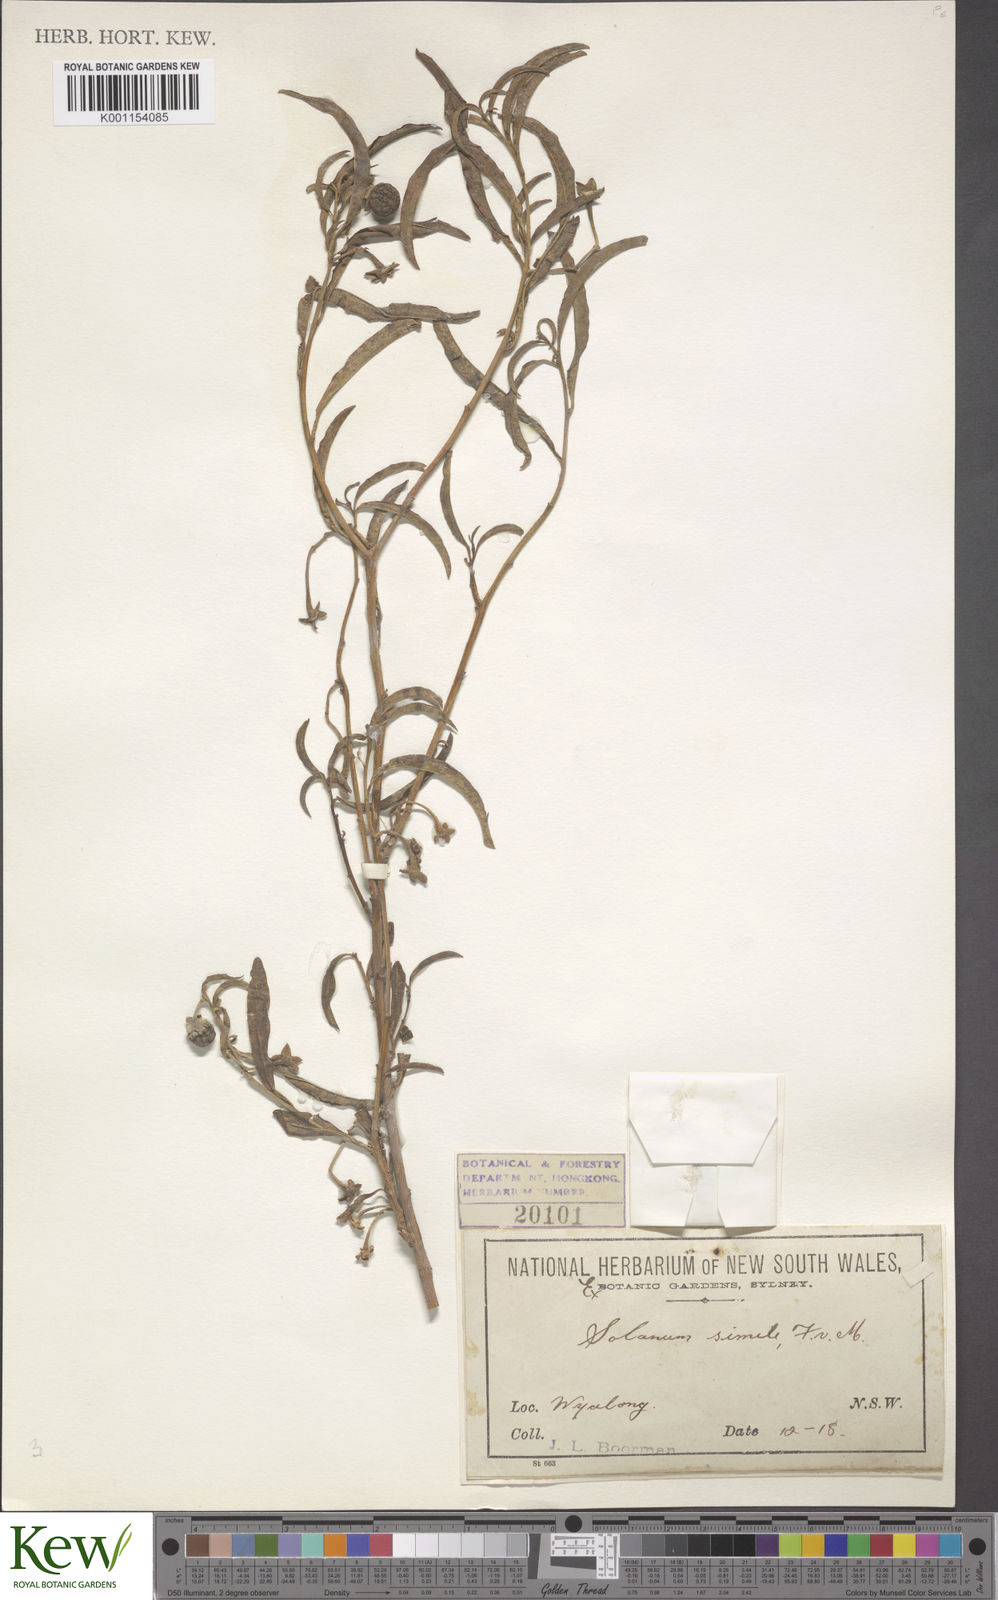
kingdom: Plantae
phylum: Tracheophyta
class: Magnoliopsida
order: Solanales
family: Solanaceae
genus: Solanum
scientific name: Solanum simile
